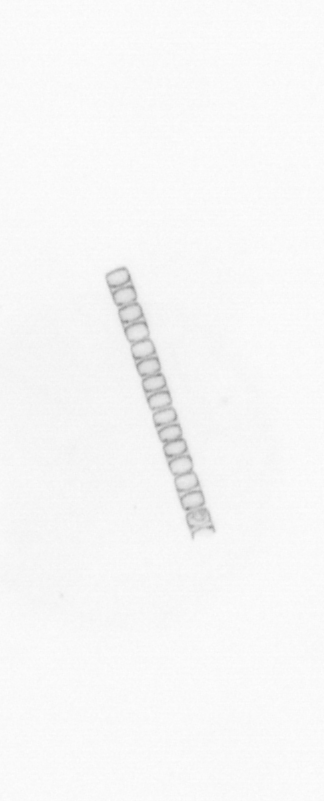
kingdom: Chromista
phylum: Ochrophyta
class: Bacillariophyceae
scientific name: Bacillariophyceae
